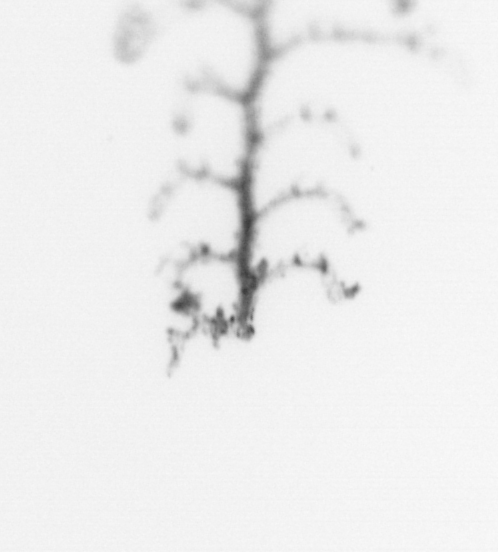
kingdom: Animalia
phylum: Cnidaria
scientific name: Cnidaria
